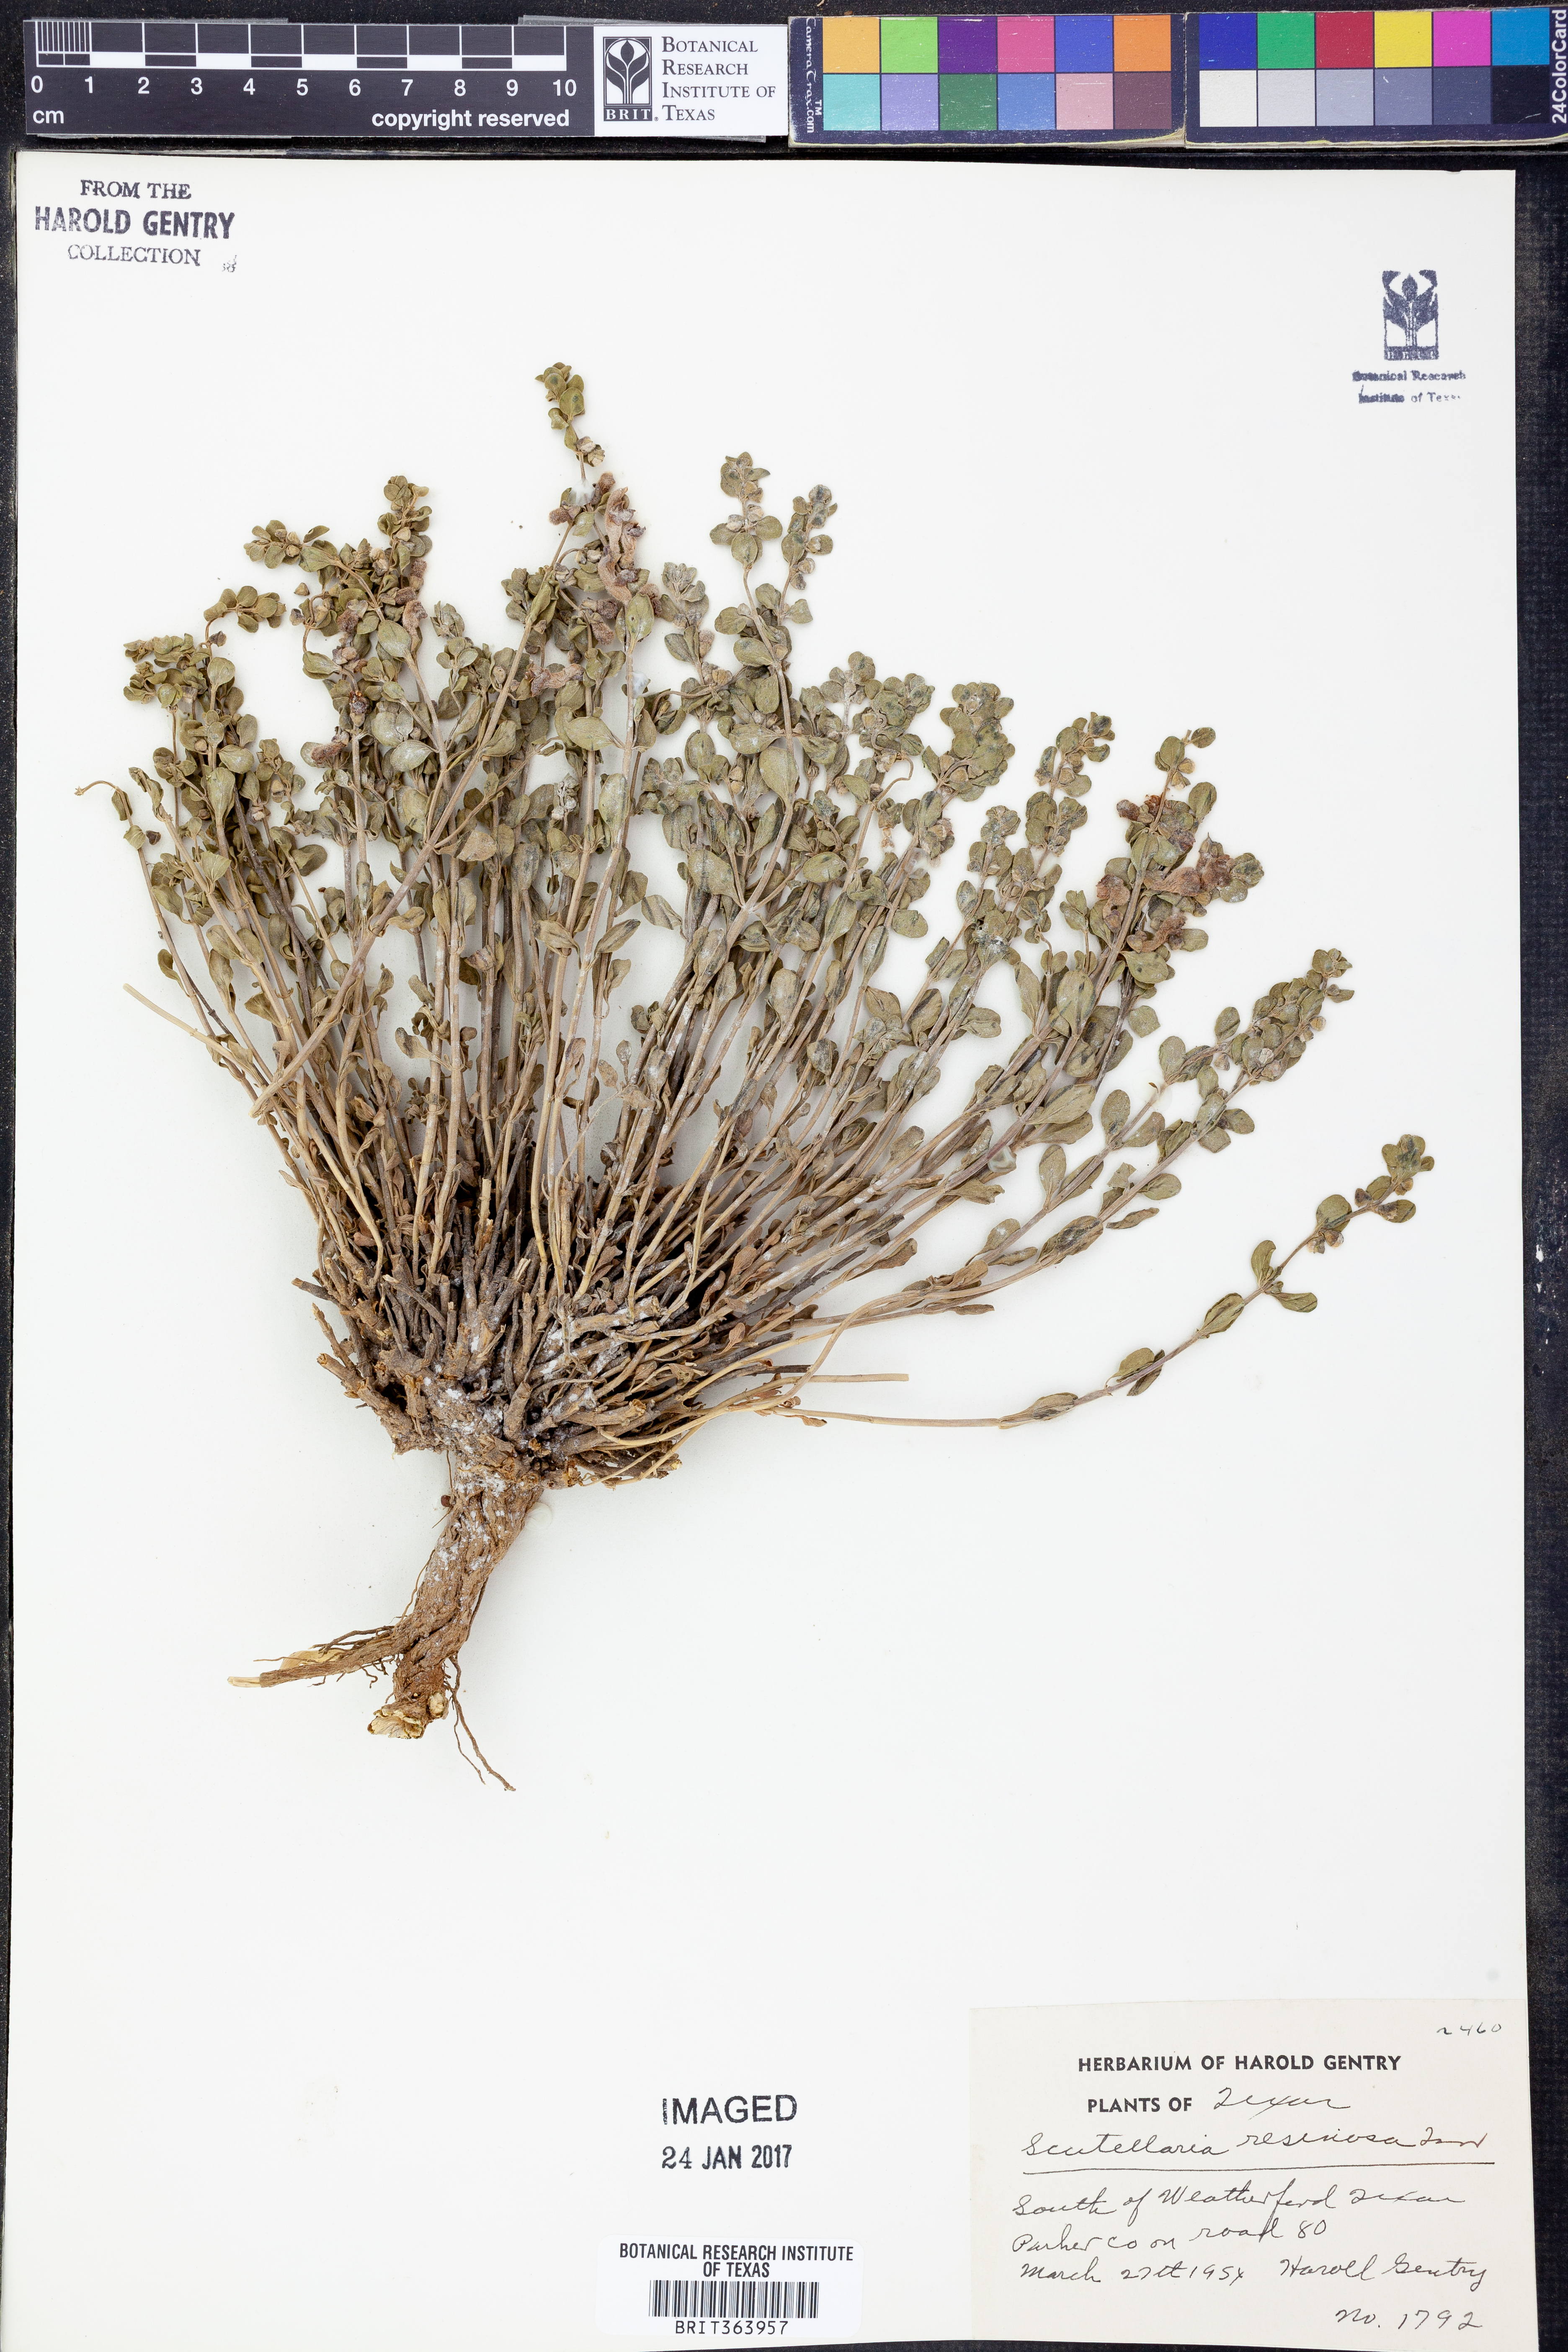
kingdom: Plantae
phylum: Tracheophyta
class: Magnoliopsida
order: Lamiales
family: Lamiaceae
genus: Scutellaria
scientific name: Scutellaria resinosa
